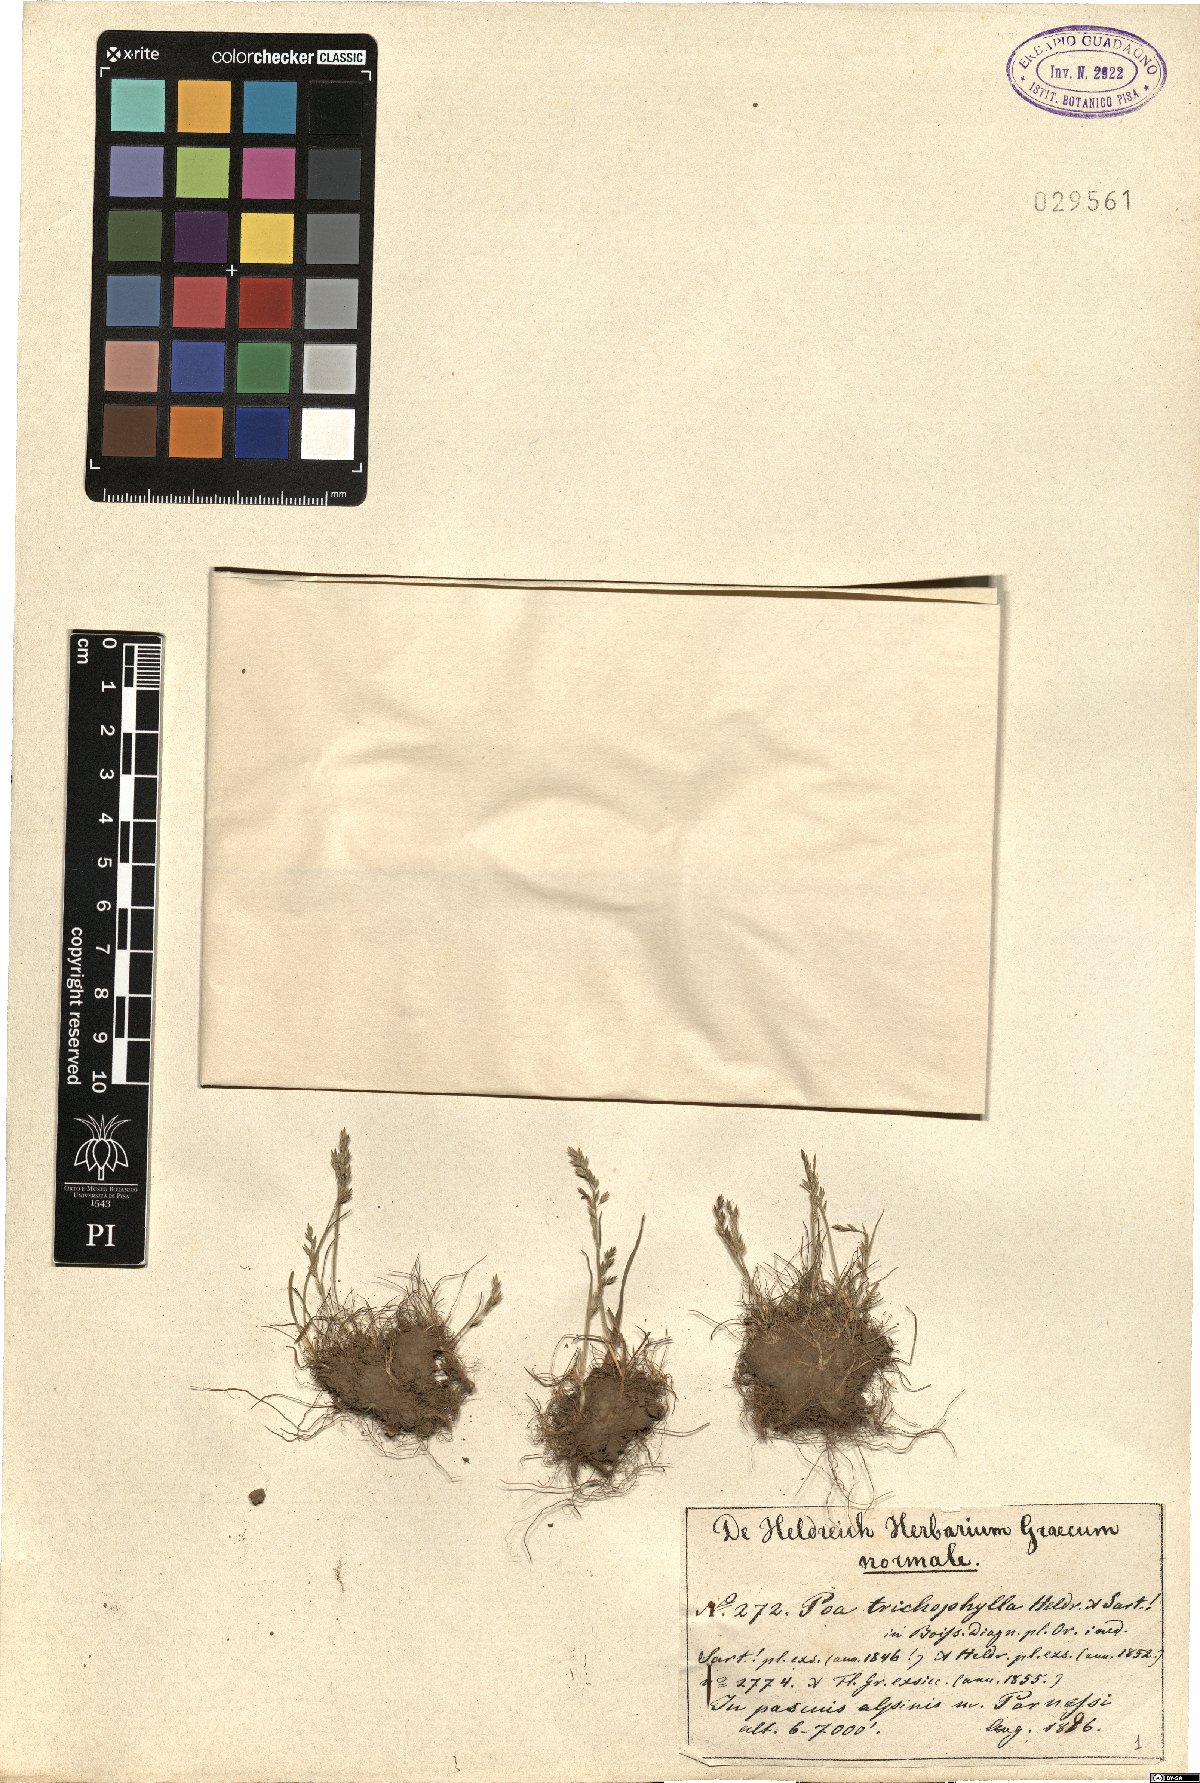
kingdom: Plantae
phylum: Tracheophyta
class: Liliopsida
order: Poales
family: Poaceae
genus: Poa
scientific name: Poa trichophylla
